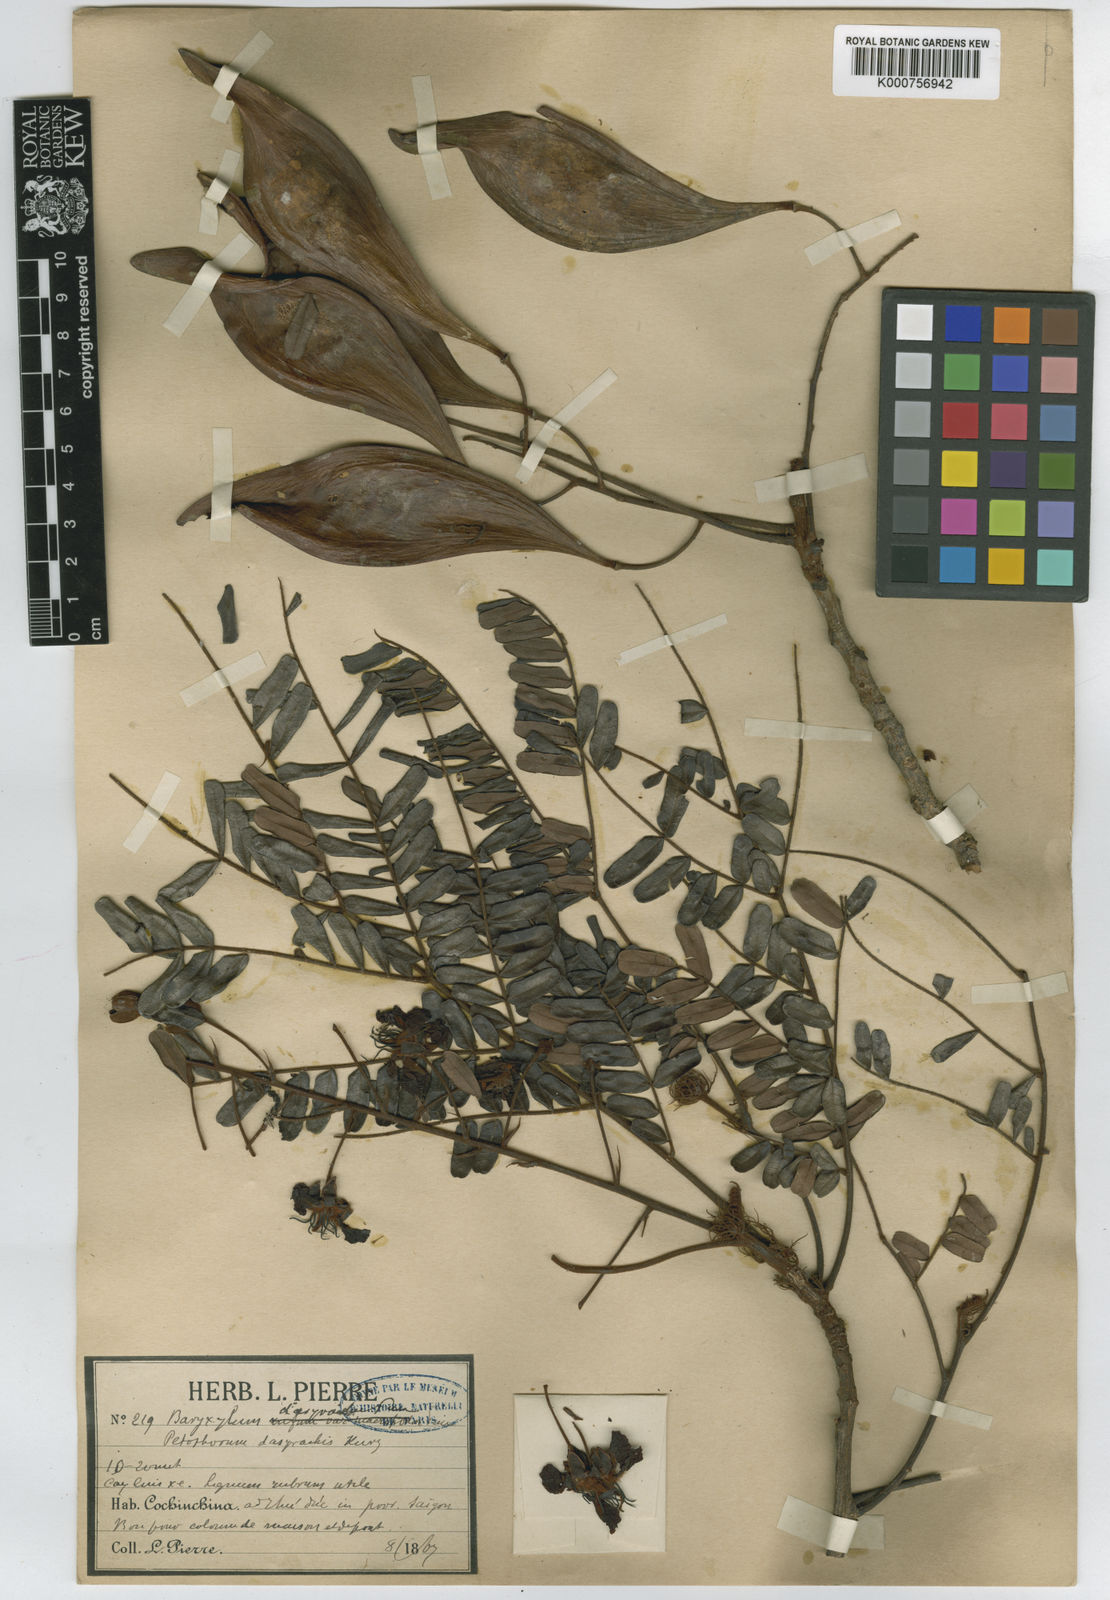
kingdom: Plantae
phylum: Tracheophyta
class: Magnoliopsida
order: Fabales
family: Fabaceae
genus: Peltophorum
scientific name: Peltophorum dasyrhachis
